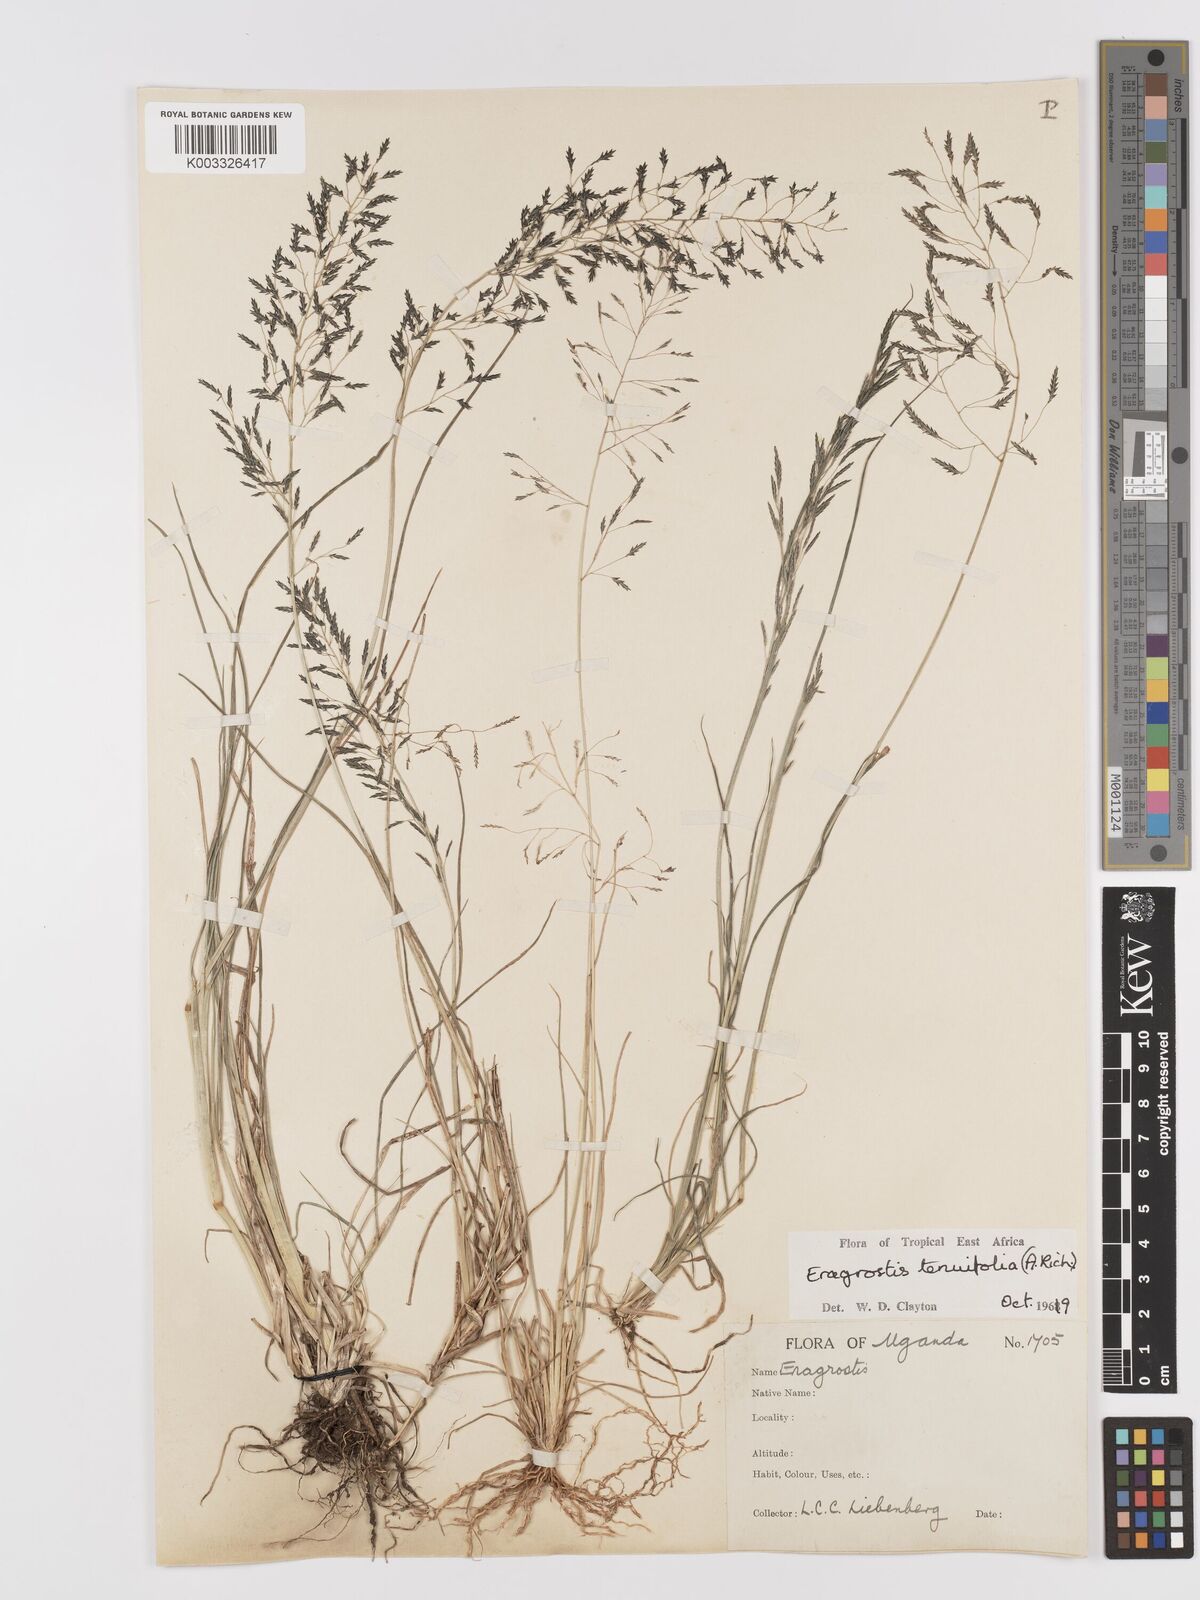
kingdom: Plantae
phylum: Tracheophyta
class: Liliopsida
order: Poales
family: Poaceae
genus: Eragrostis
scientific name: Eragrostis tenuifolia
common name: Elastic grass
